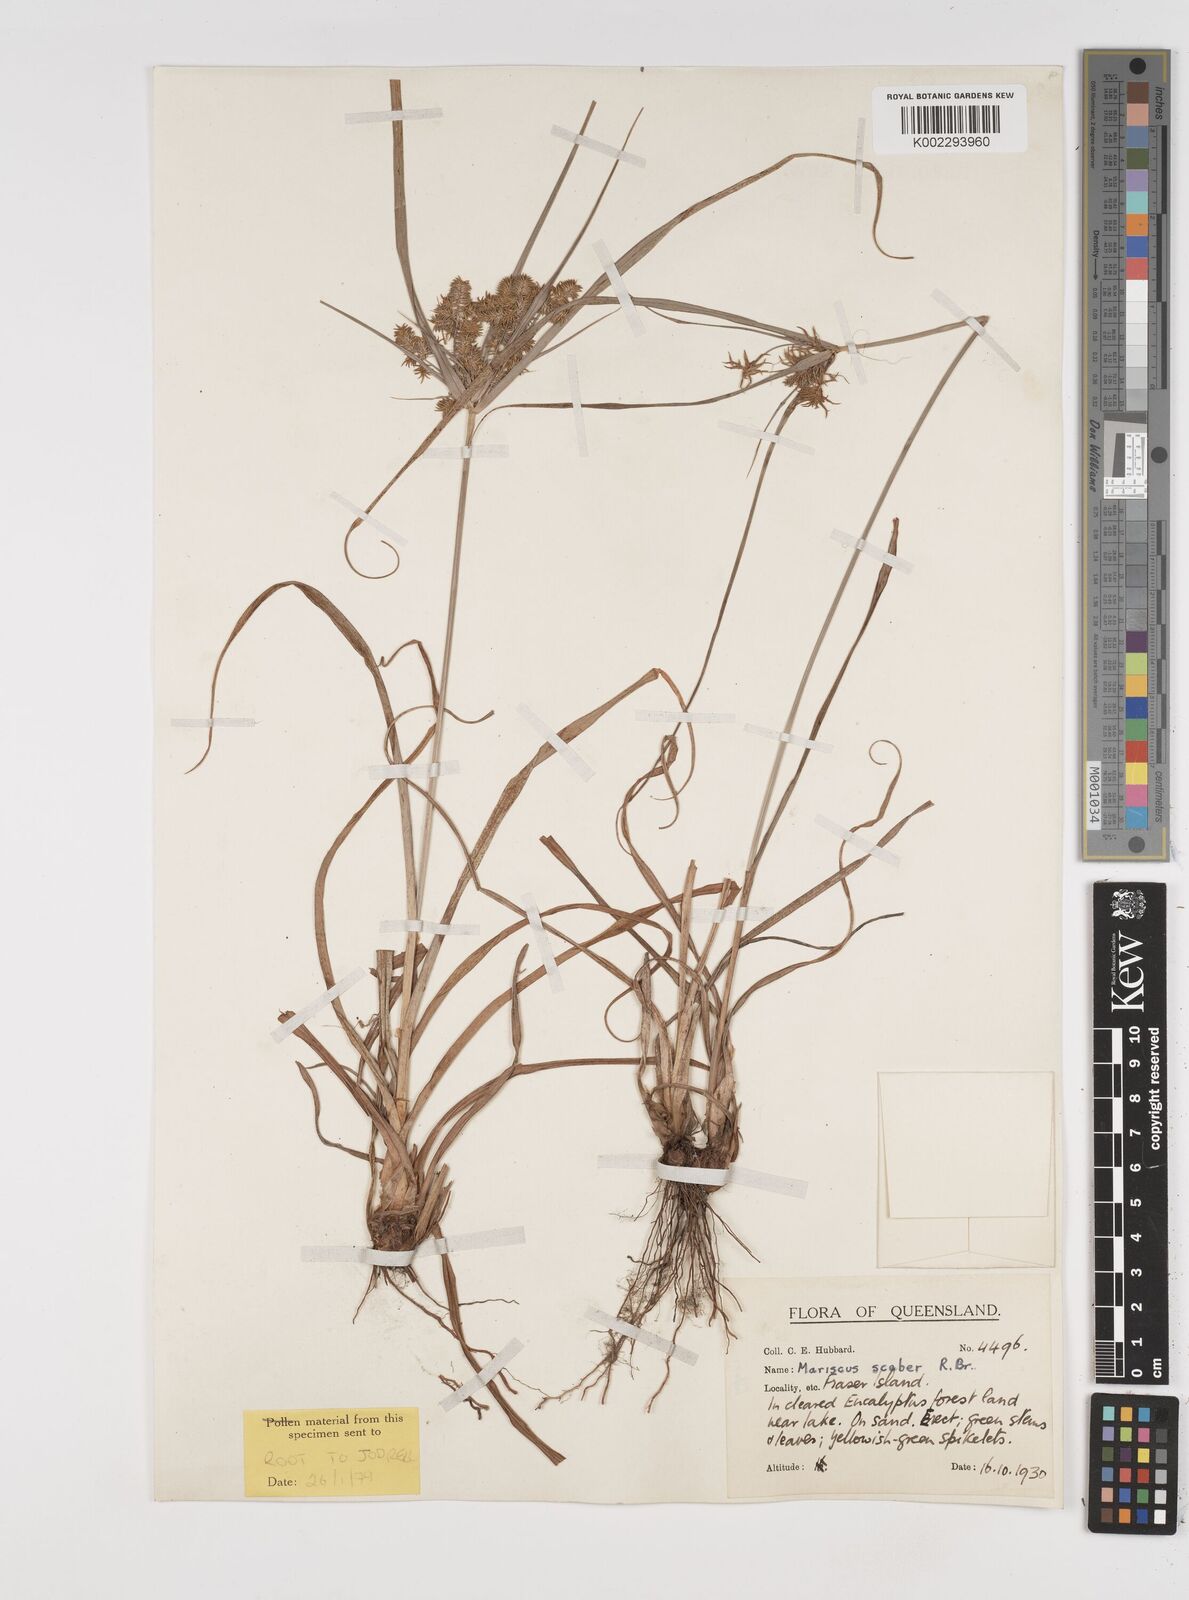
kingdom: Plantae
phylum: Tracheophyta
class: Liliopsida
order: Poales
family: Cyperaceae
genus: Cyperus
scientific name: Cyperus scaber
